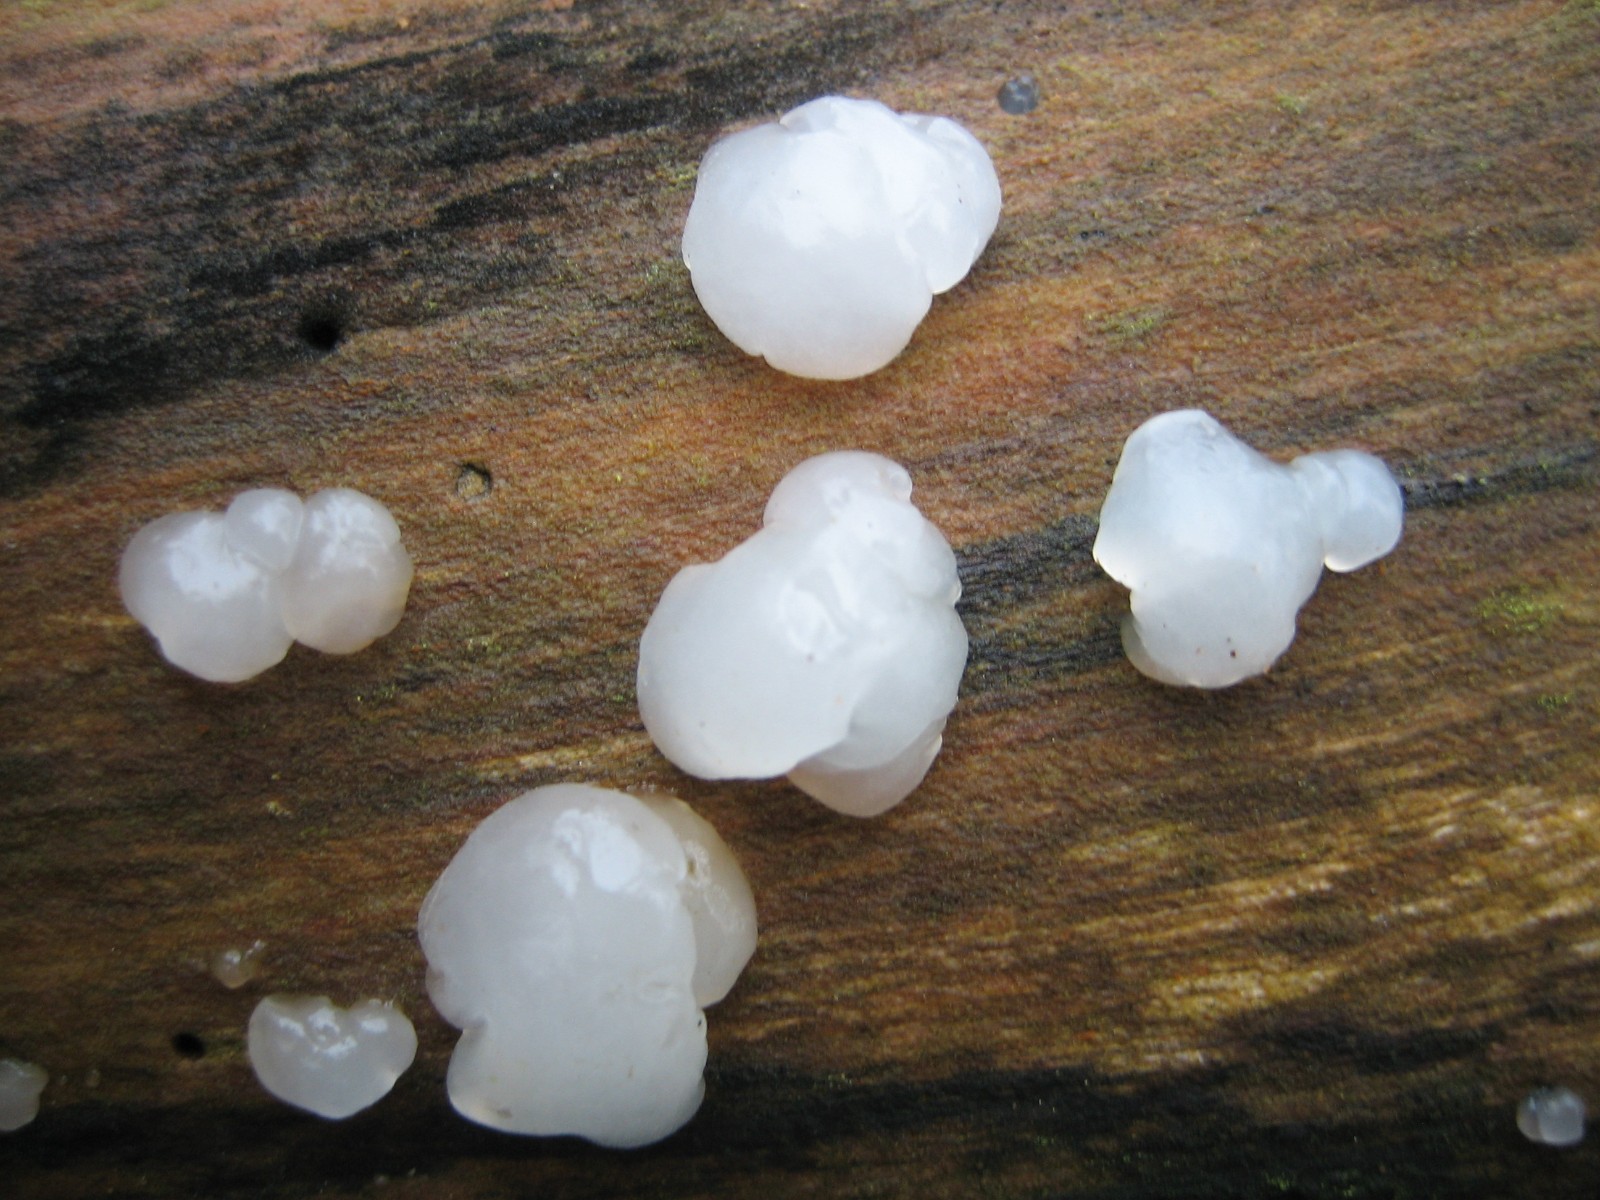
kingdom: Fungi
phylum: Basidiomycota
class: Agaricomycetes
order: Auriculariales
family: Auriculariaceae
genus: Exidia
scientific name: Exidia thuretiana
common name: hvidlig bævretop
